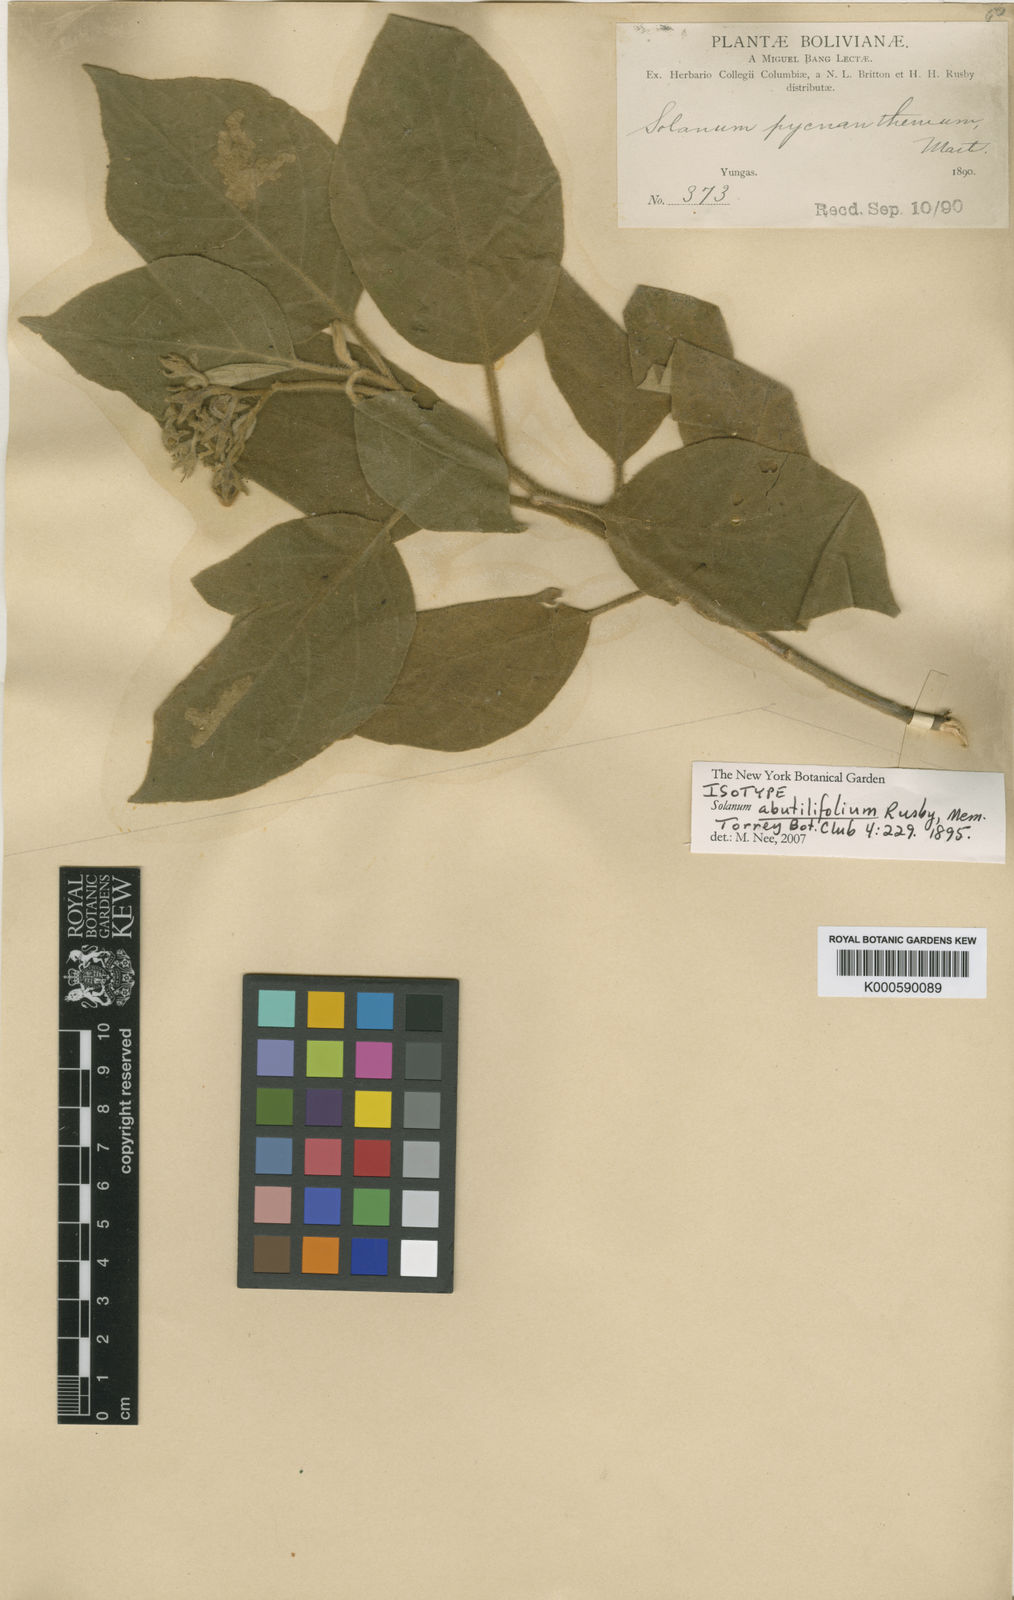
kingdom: Plantae
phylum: Tracheophyta
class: Magnoliopsida
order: Solanales
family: Solanaceae
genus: Solanum
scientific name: Solanum abutilifolium
